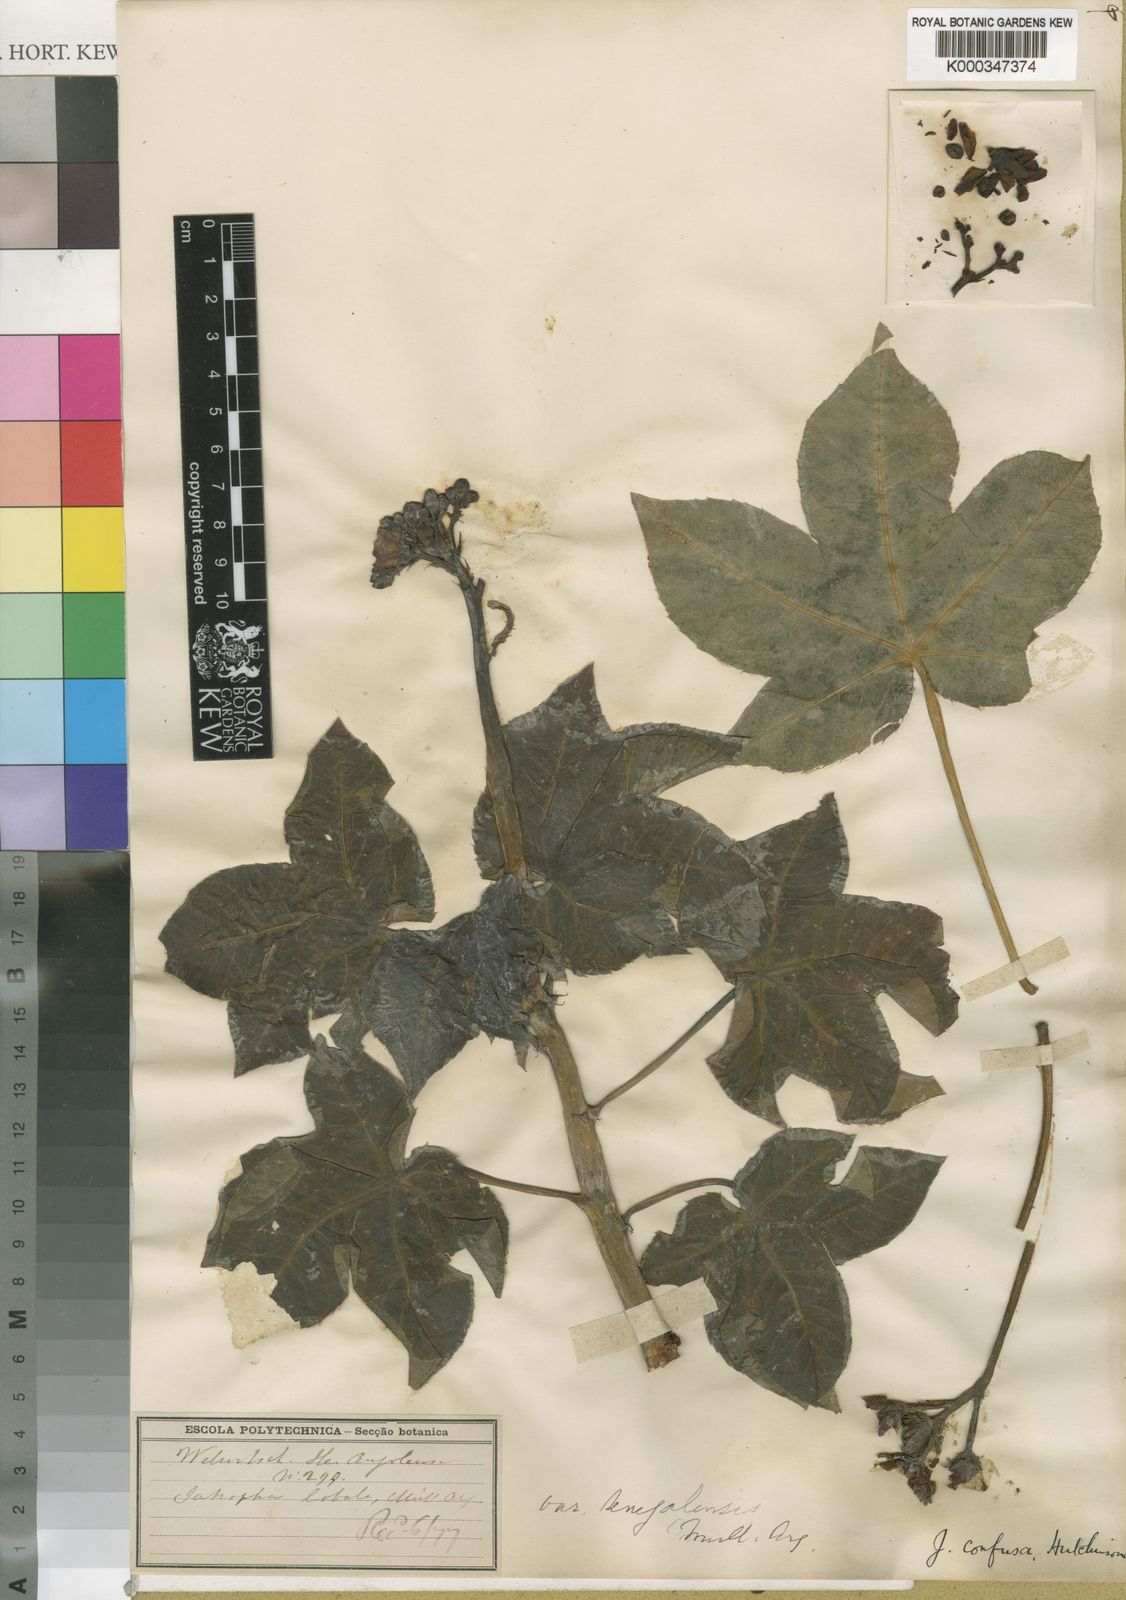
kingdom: Plantae
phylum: Tracheophyta
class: Magnoliopsida
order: Malpighiales
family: Euphorbiaceae
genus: Jatropha
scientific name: Jatropha confusa
